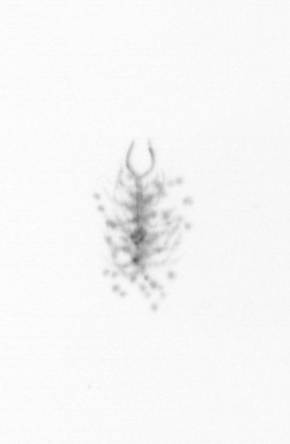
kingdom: Chromista
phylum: Ochrophyta
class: Bacillariophyceae
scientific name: Bacillariophyceae
